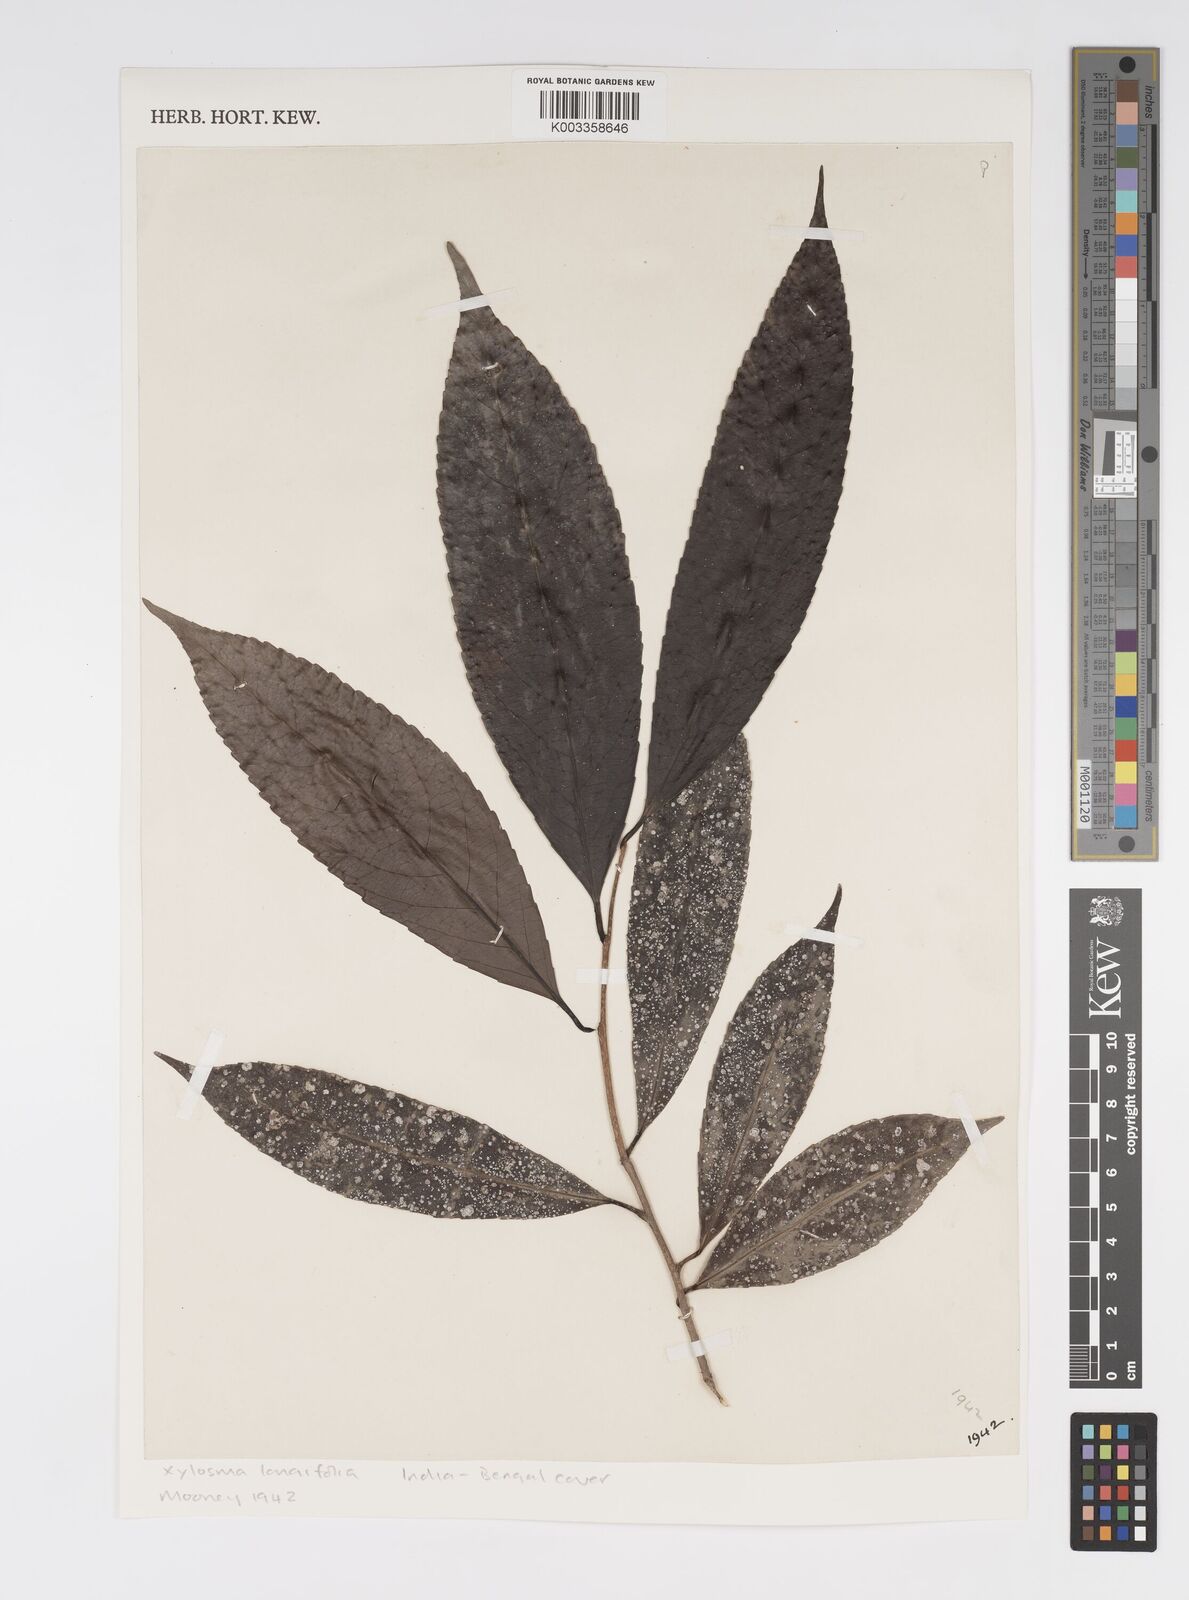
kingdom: Plantae
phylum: Tracheophyta
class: Magnoliopsida
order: Malpighiales
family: Salicaceae
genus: Xylosma
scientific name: Xylosma longifolia
